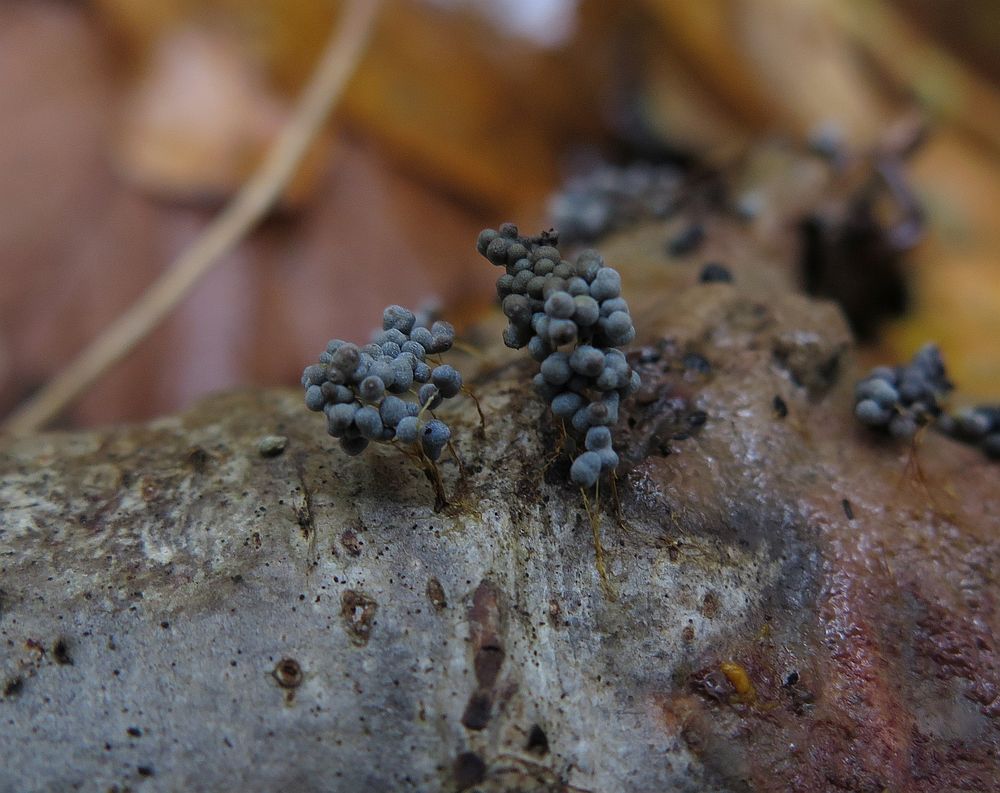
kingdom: Protozoa
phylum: Mycetozoa
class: Myxomycetes
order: Physarales
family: Physaraceae
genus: Badhamia
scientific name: Badhamia utricularis
